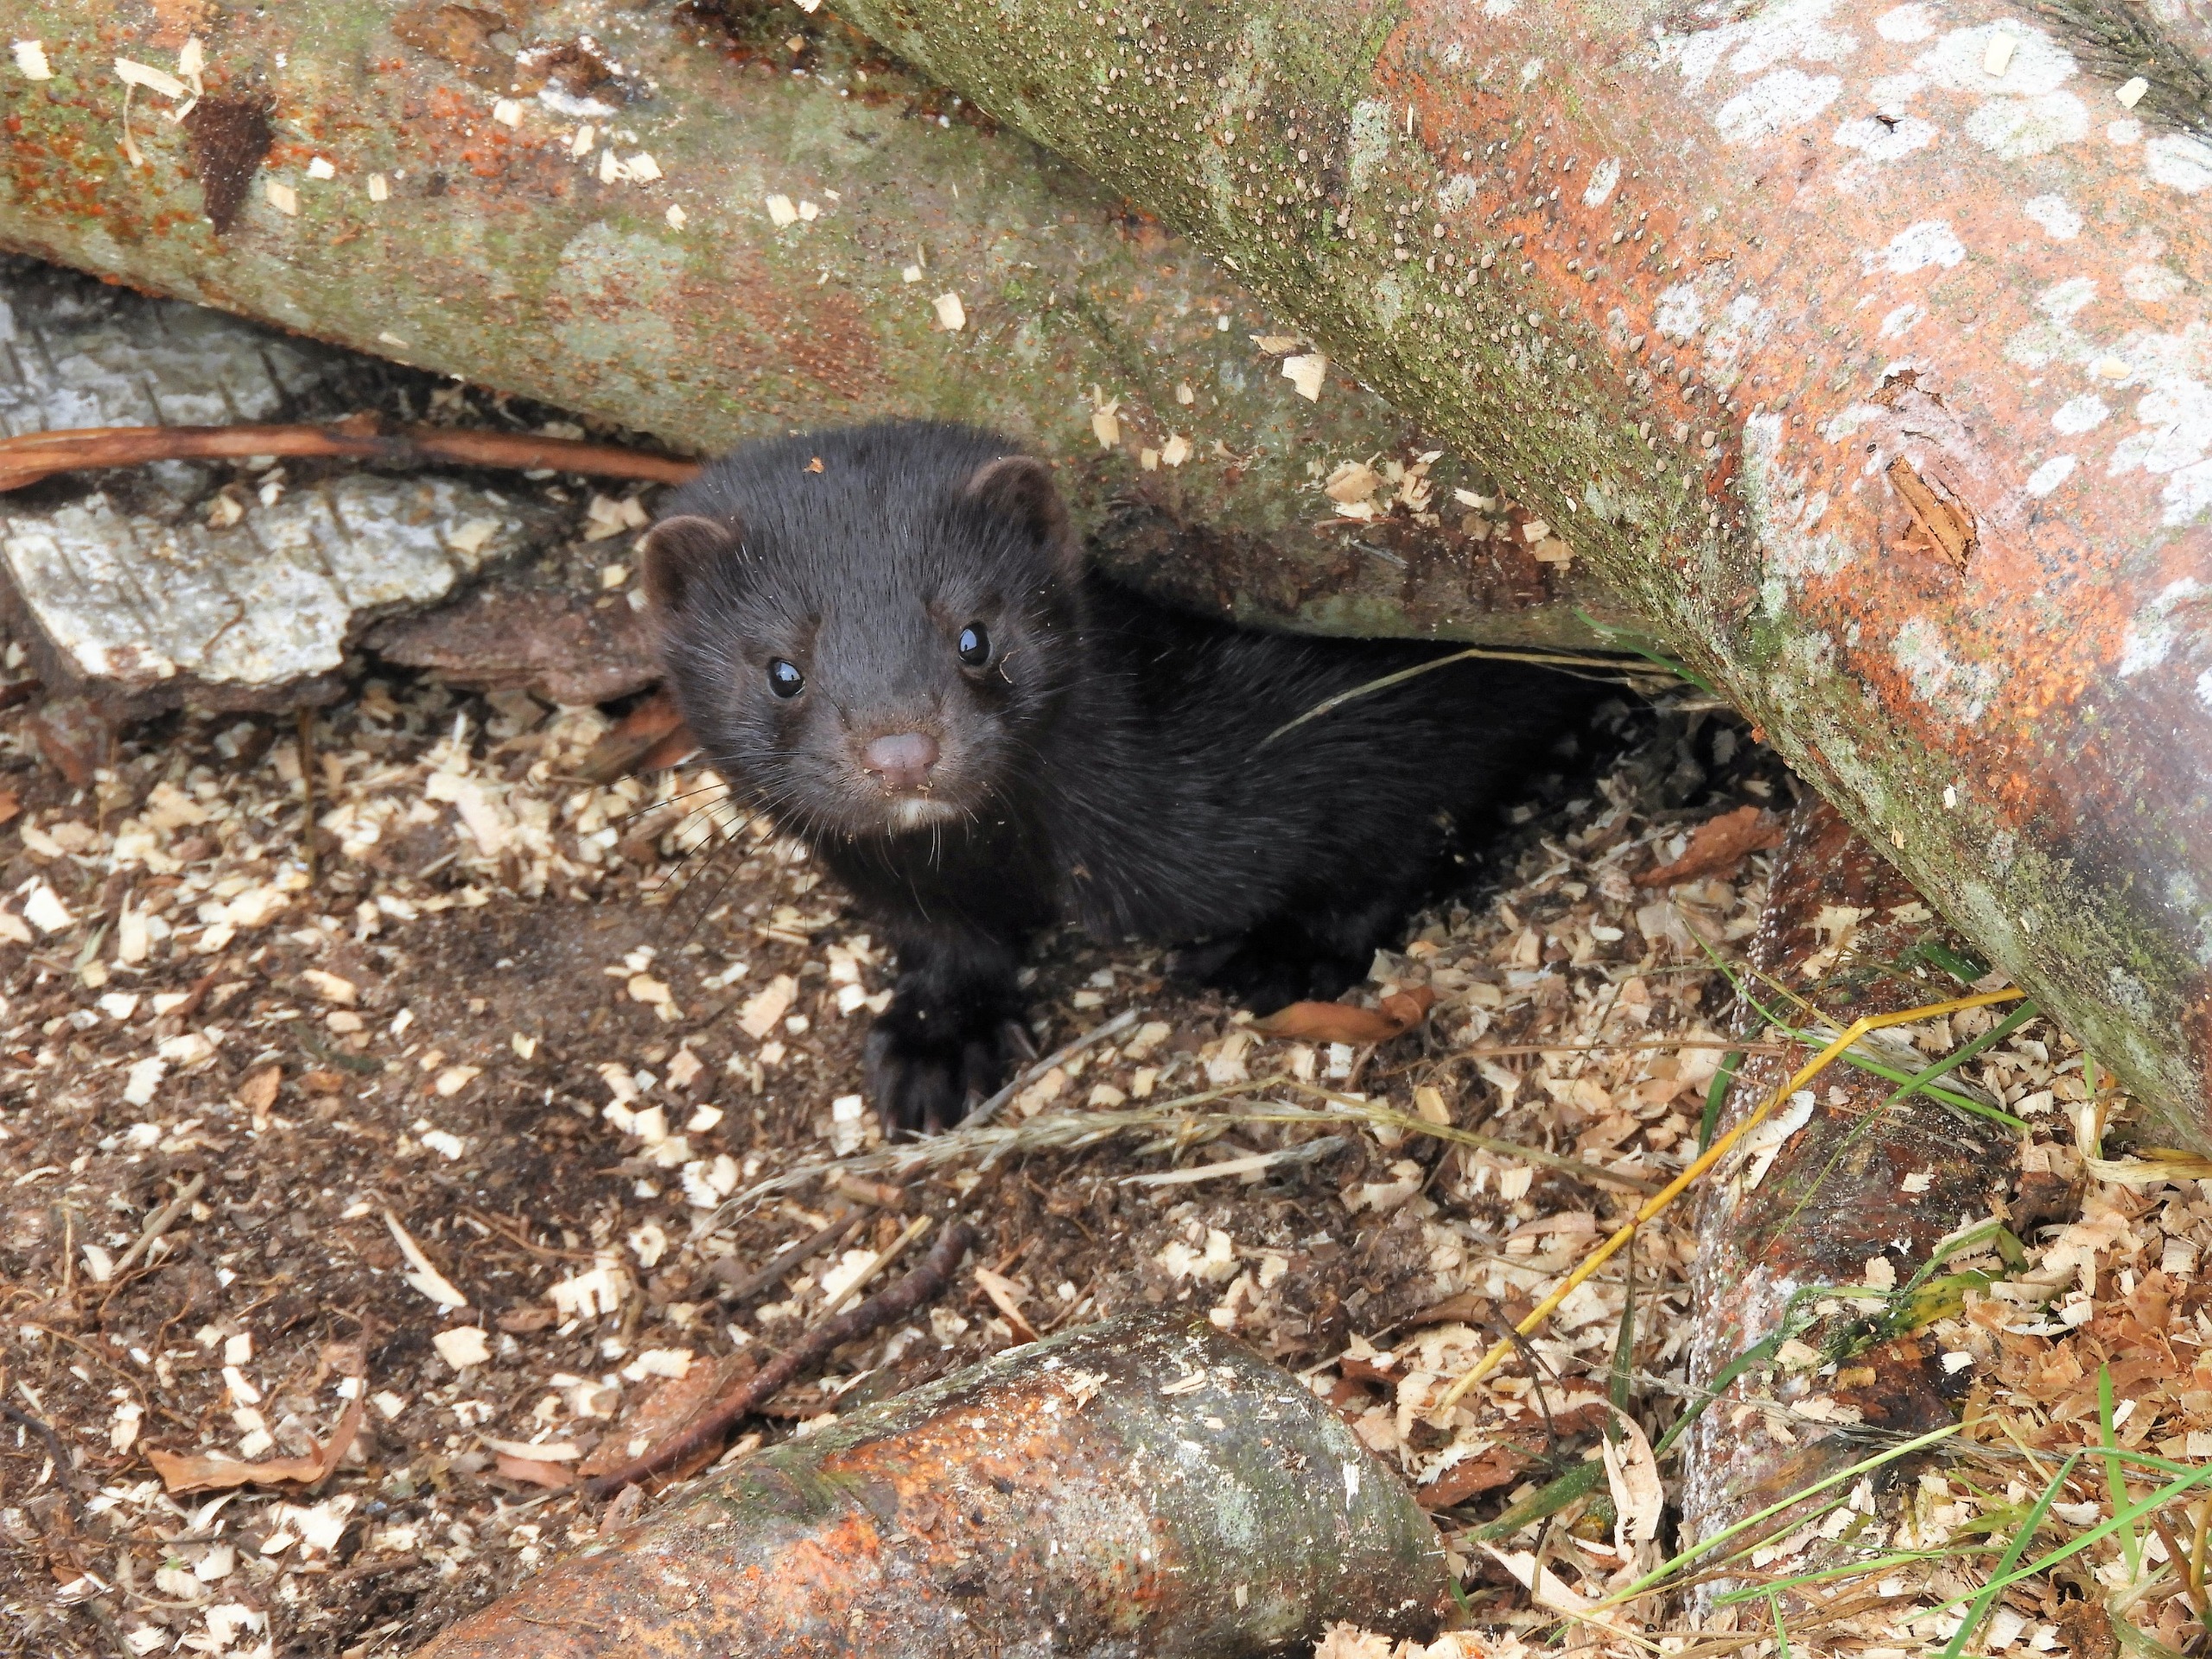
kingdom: Animalia
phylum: Chordata
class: Mammalia
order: Carnivora
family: Mustelidae
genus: Mustela
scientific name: Mustela vison
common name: Mink
